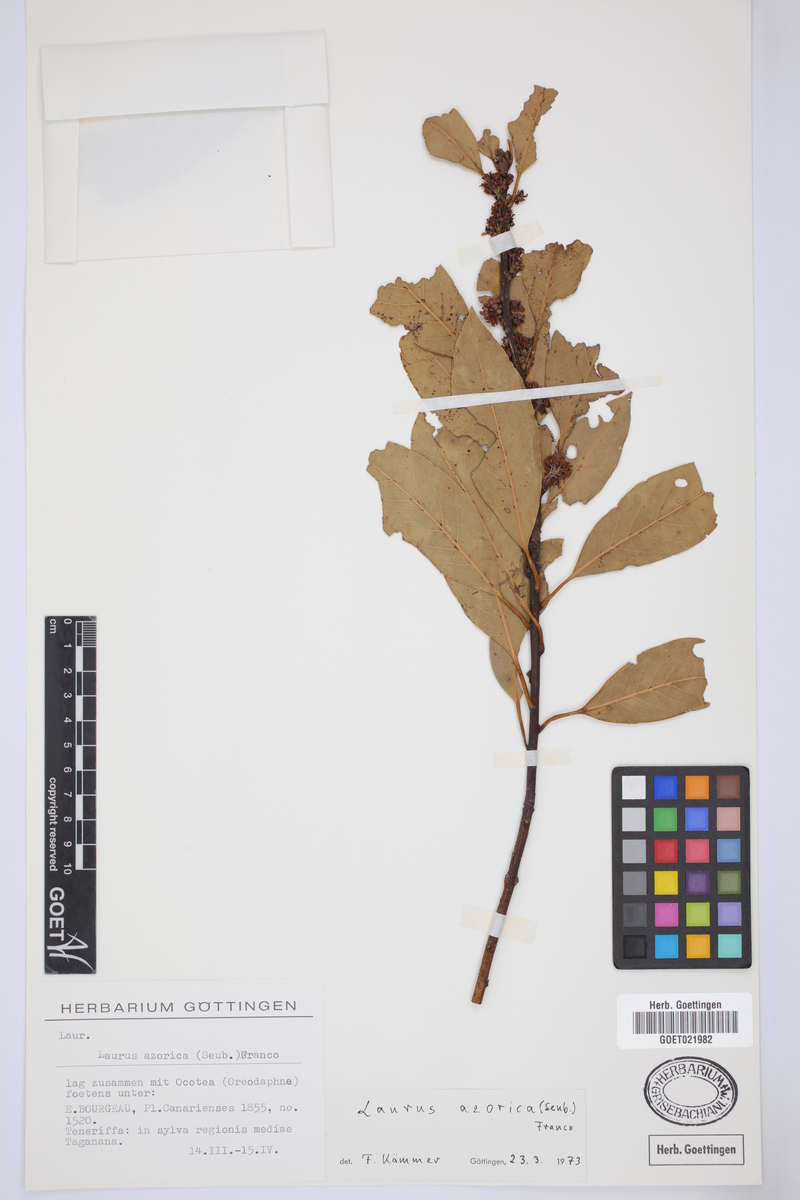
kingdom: Plantae
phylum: Tracheophyta
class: Magnoliopsida
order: Laurales
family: Lauraceae
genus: Laurus
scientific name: Laurus azorica
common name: Macaronesian laurel
